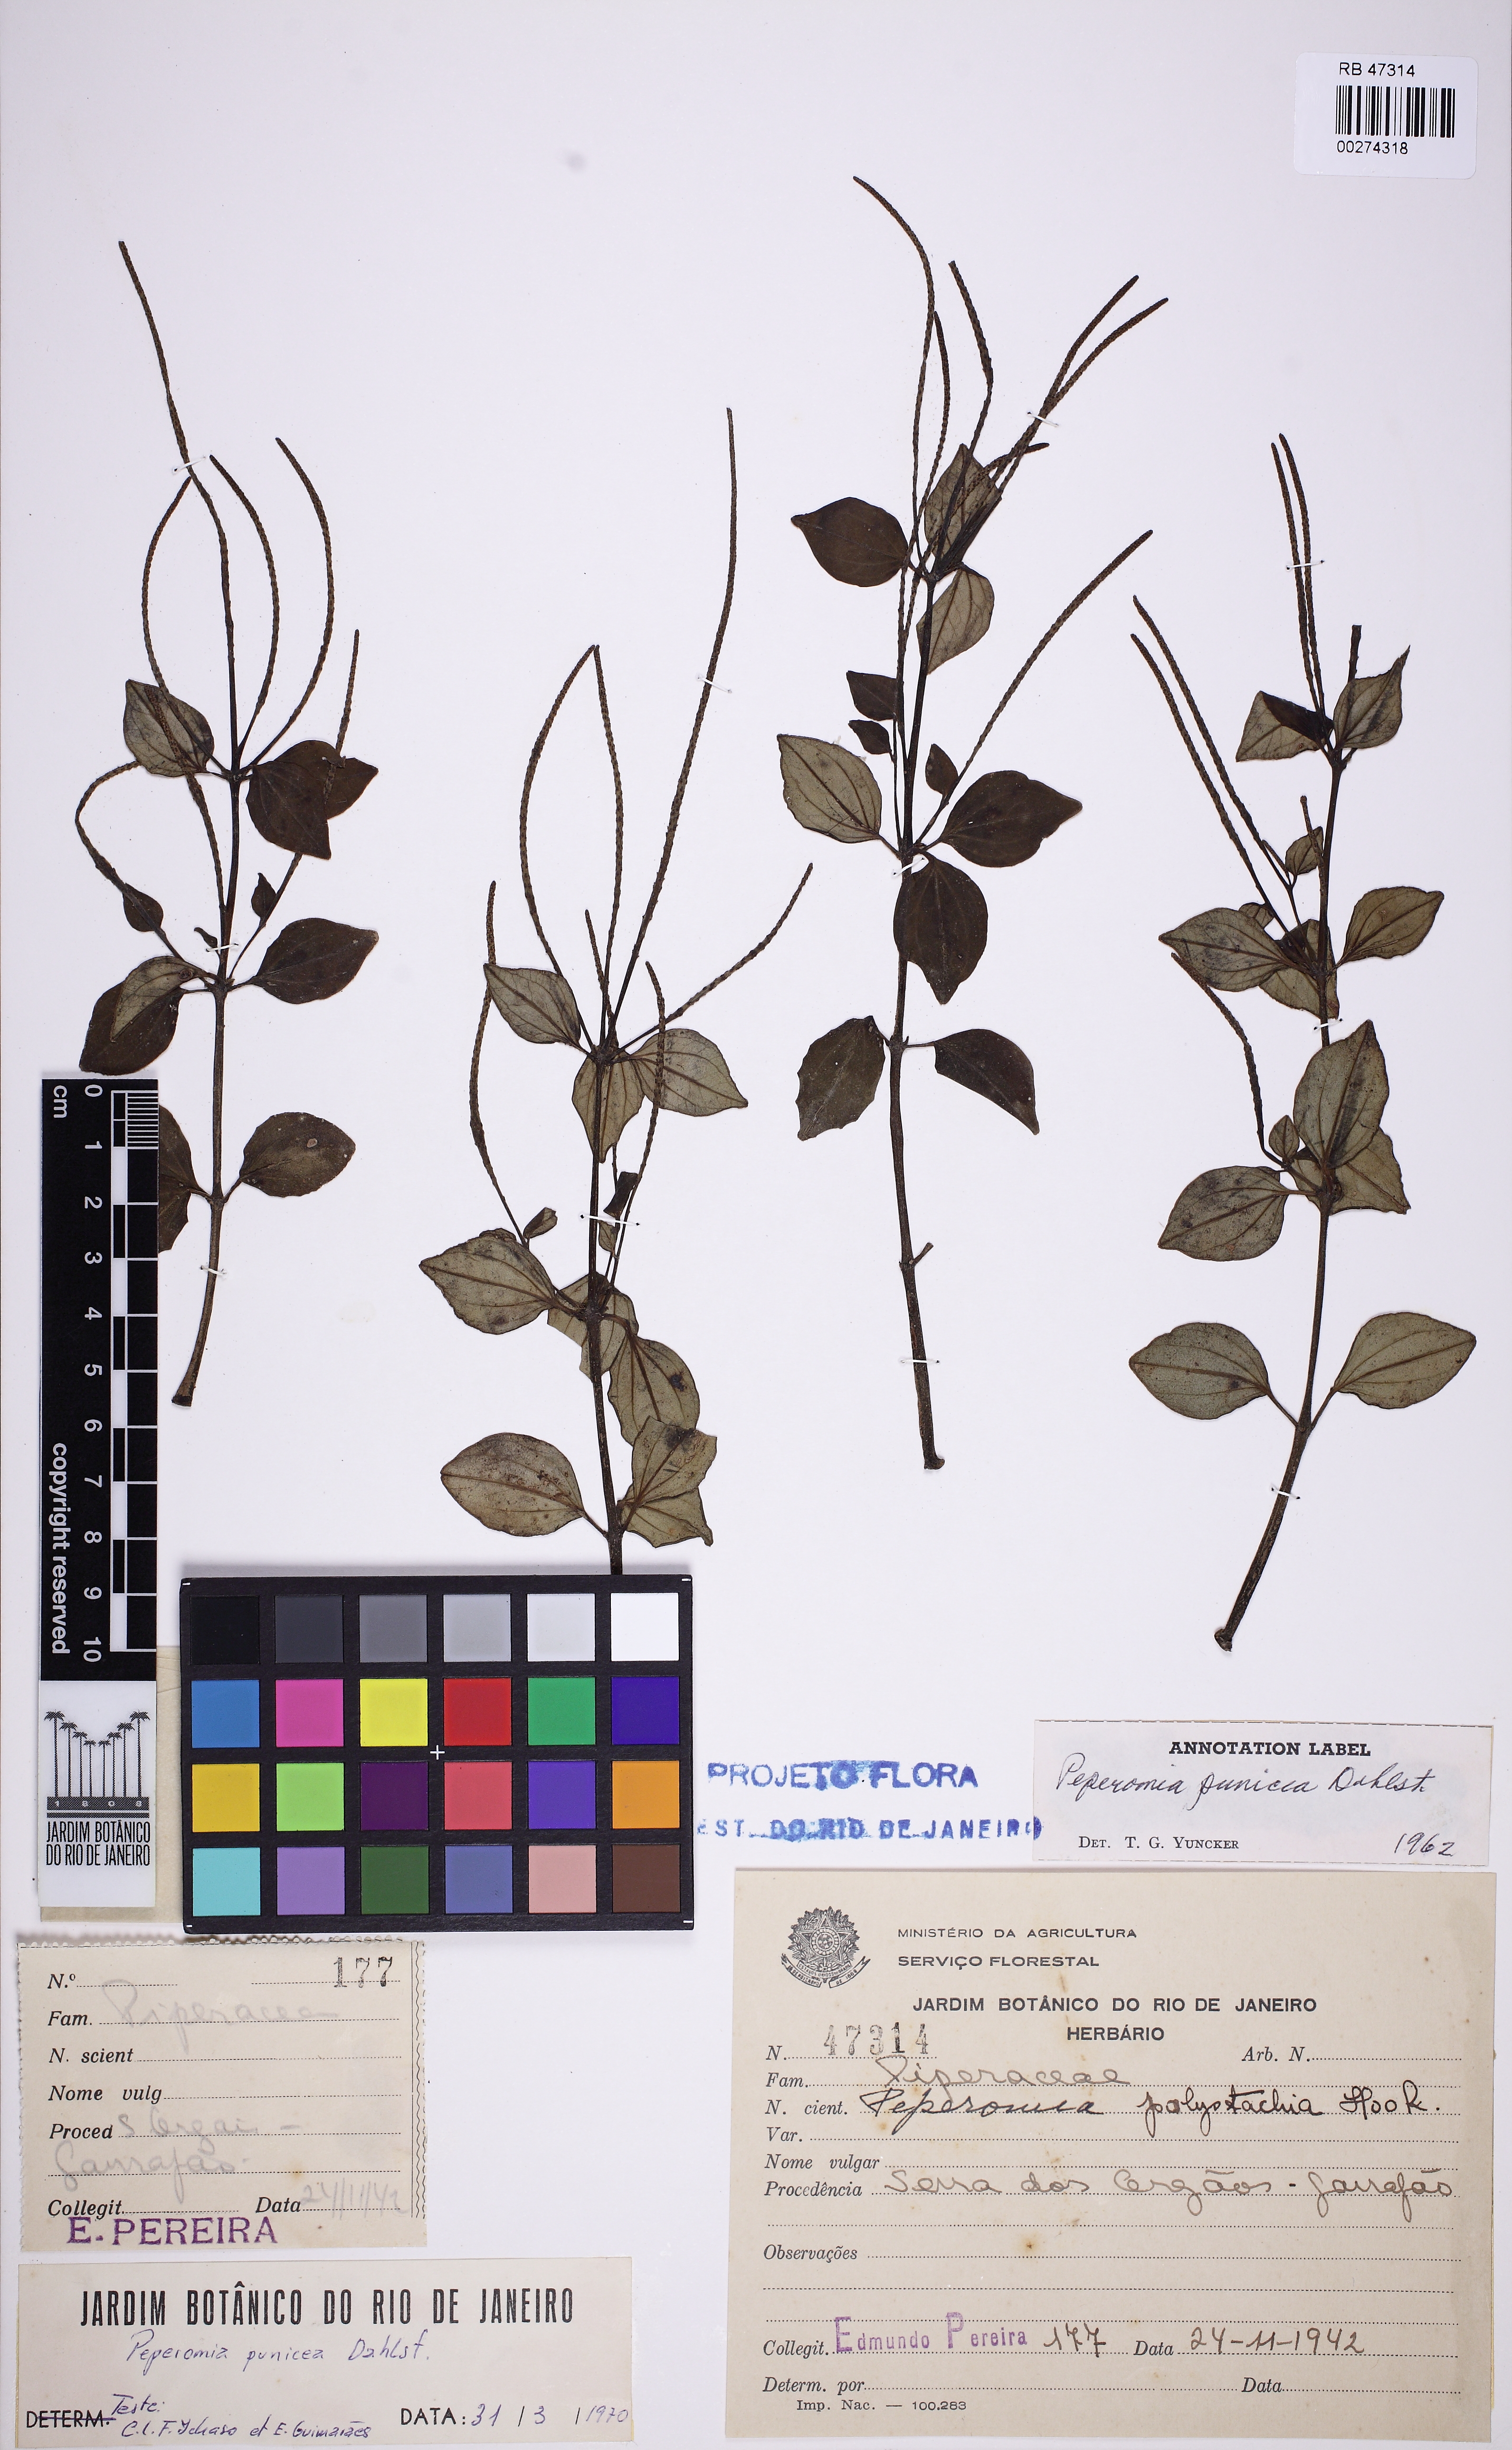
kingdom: Plantae
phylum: Tracheophyta
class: Magnoliopsida
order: Piperales
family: Piperaceae
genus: Peperomia
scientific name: Peperomia punicea
